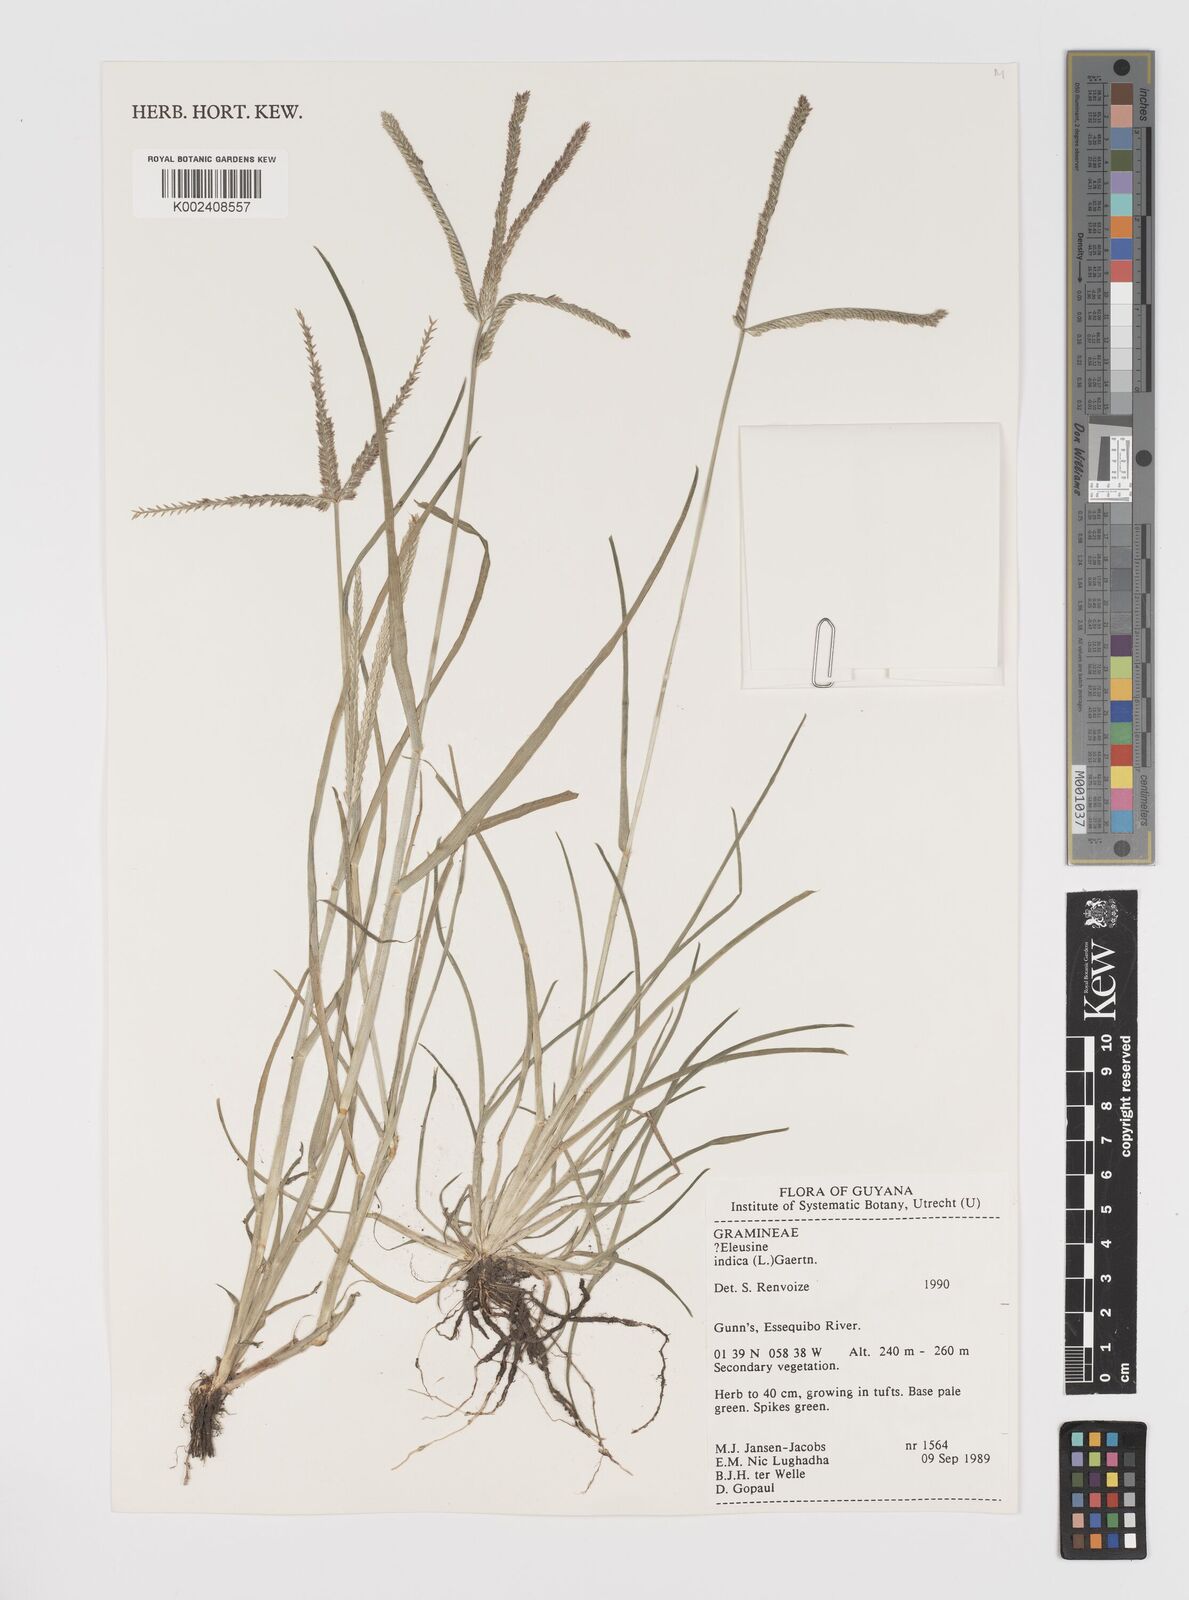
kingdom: Plantae
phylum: Tracheophyta
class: Liliopsida
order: Poales
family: Poaceae
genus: Eleusine
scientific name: Eleusine indica
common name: Yard-grass
